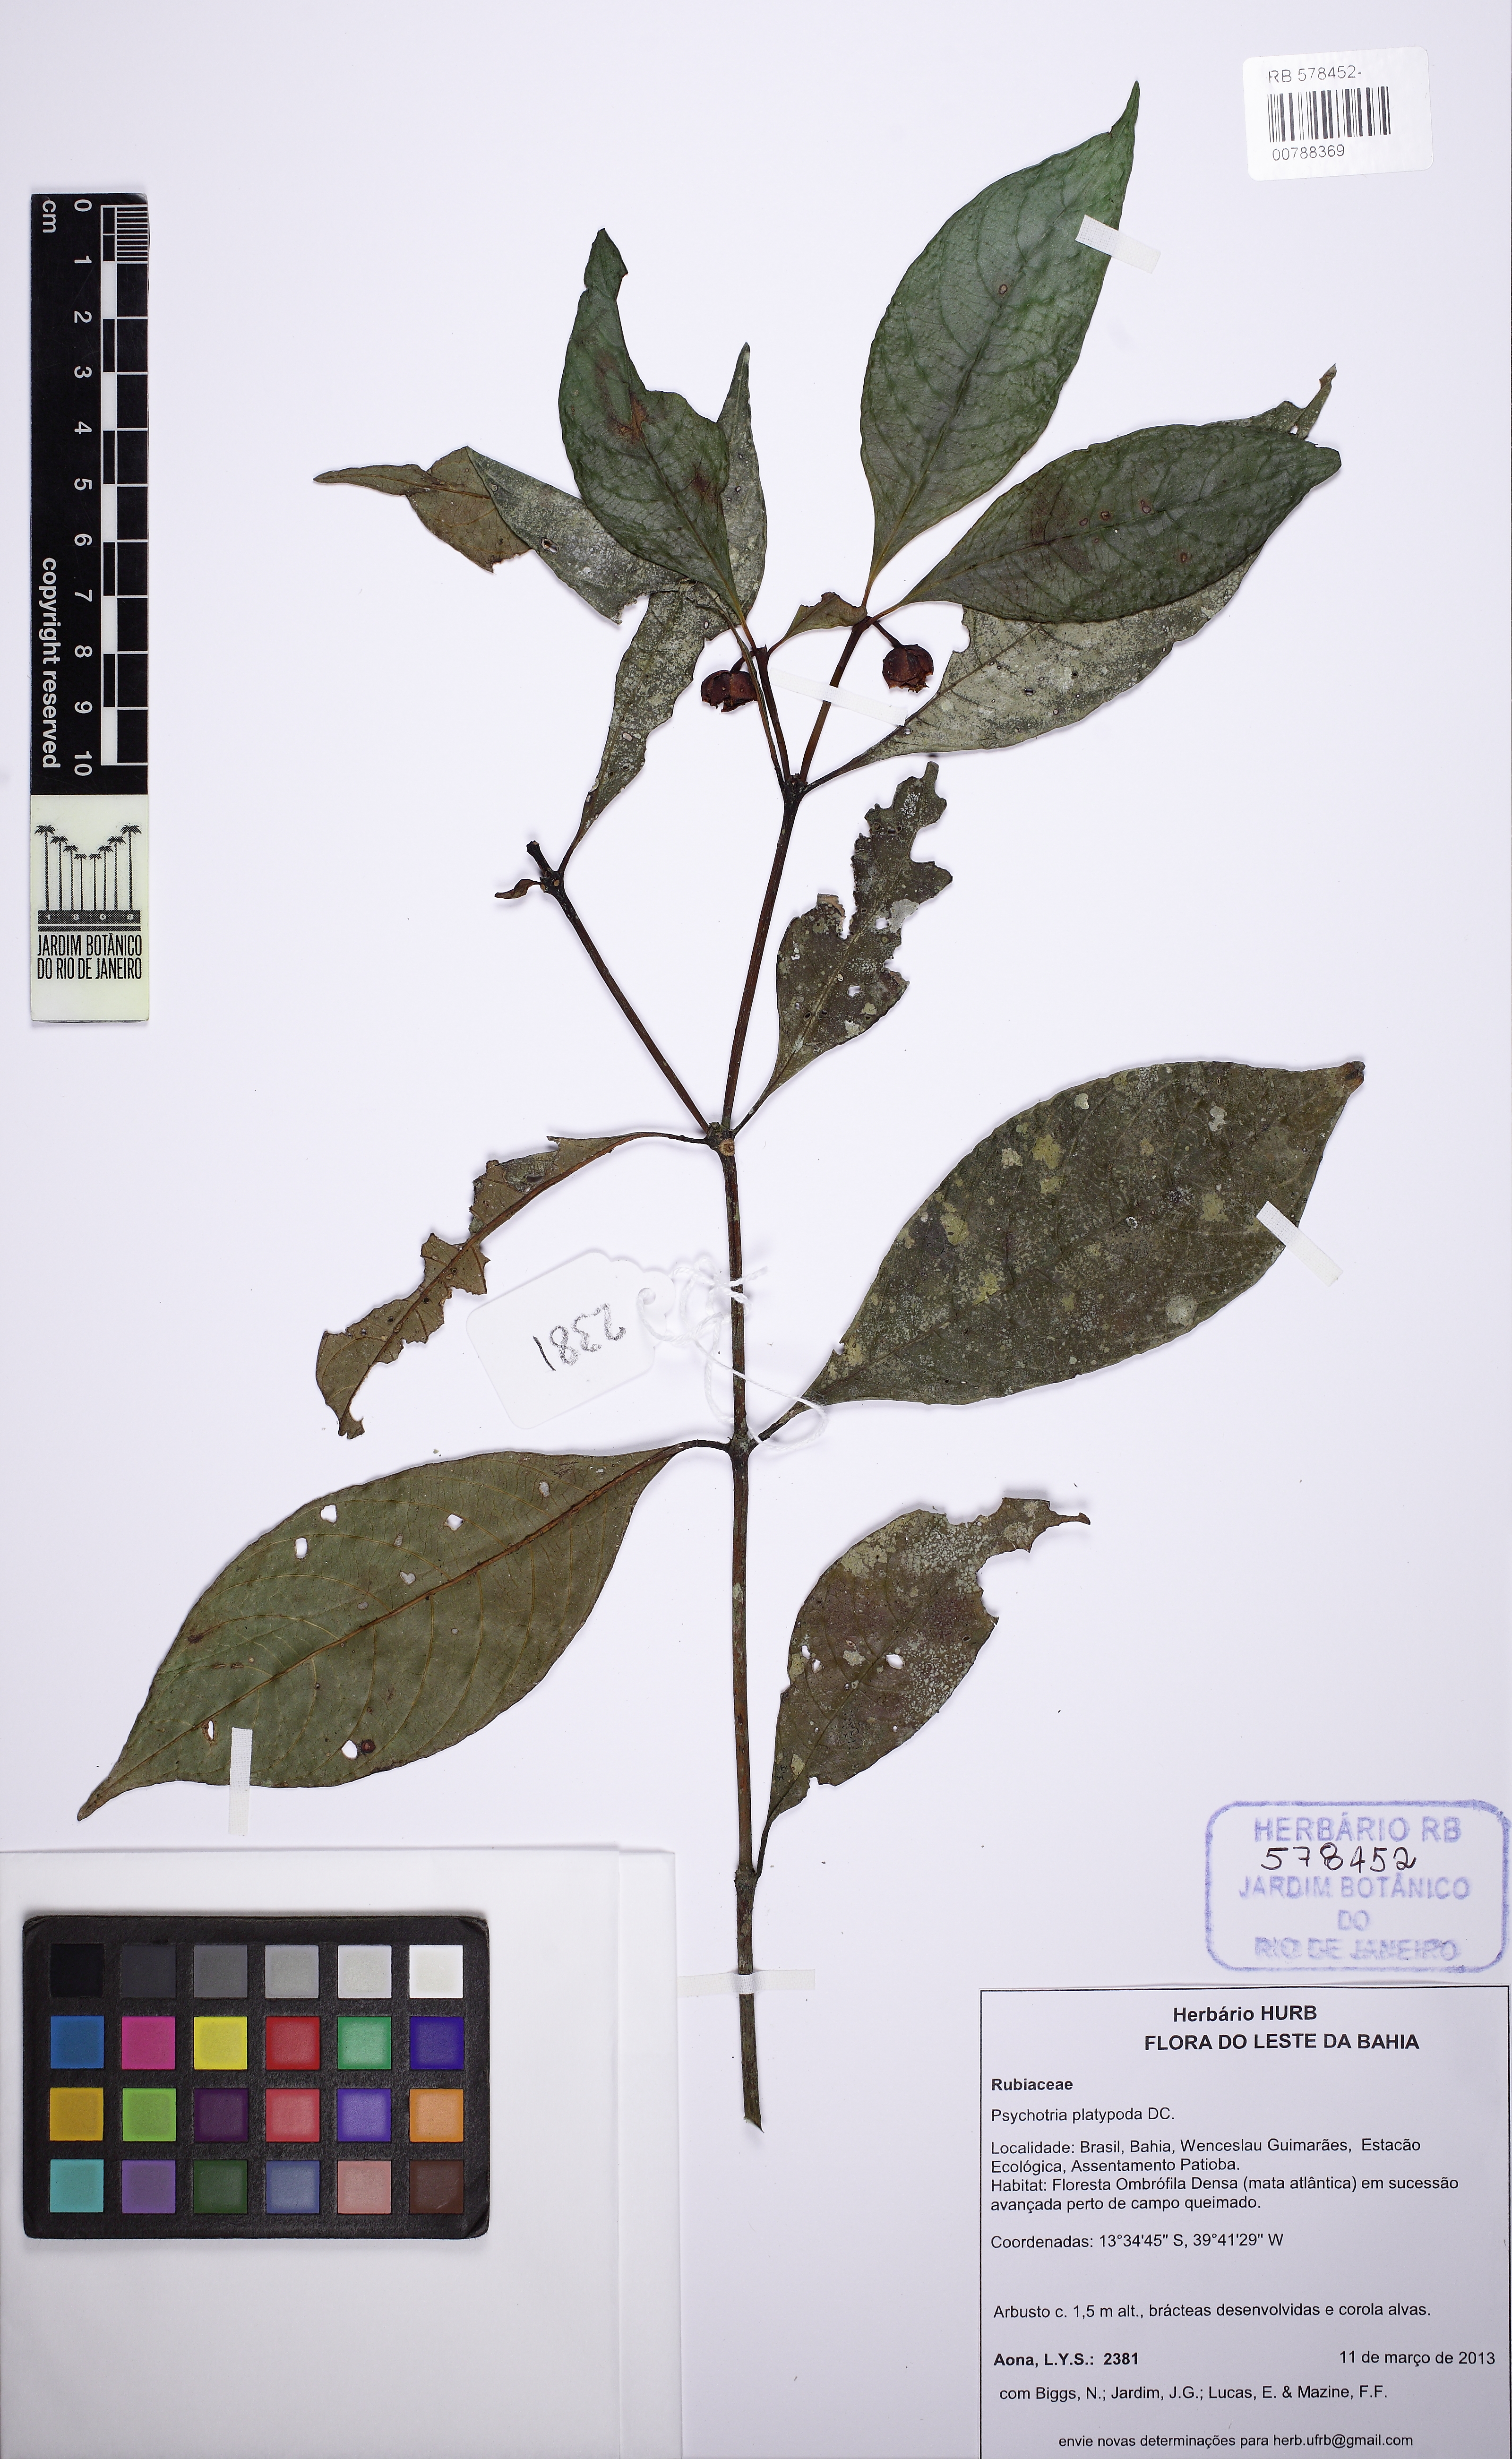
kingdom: Plantae
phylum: Tracheophyta
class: Magnoliopsida
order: Gentianales
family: Rubiaceae
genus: Palicourea
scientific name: Palicourea dichotoma
